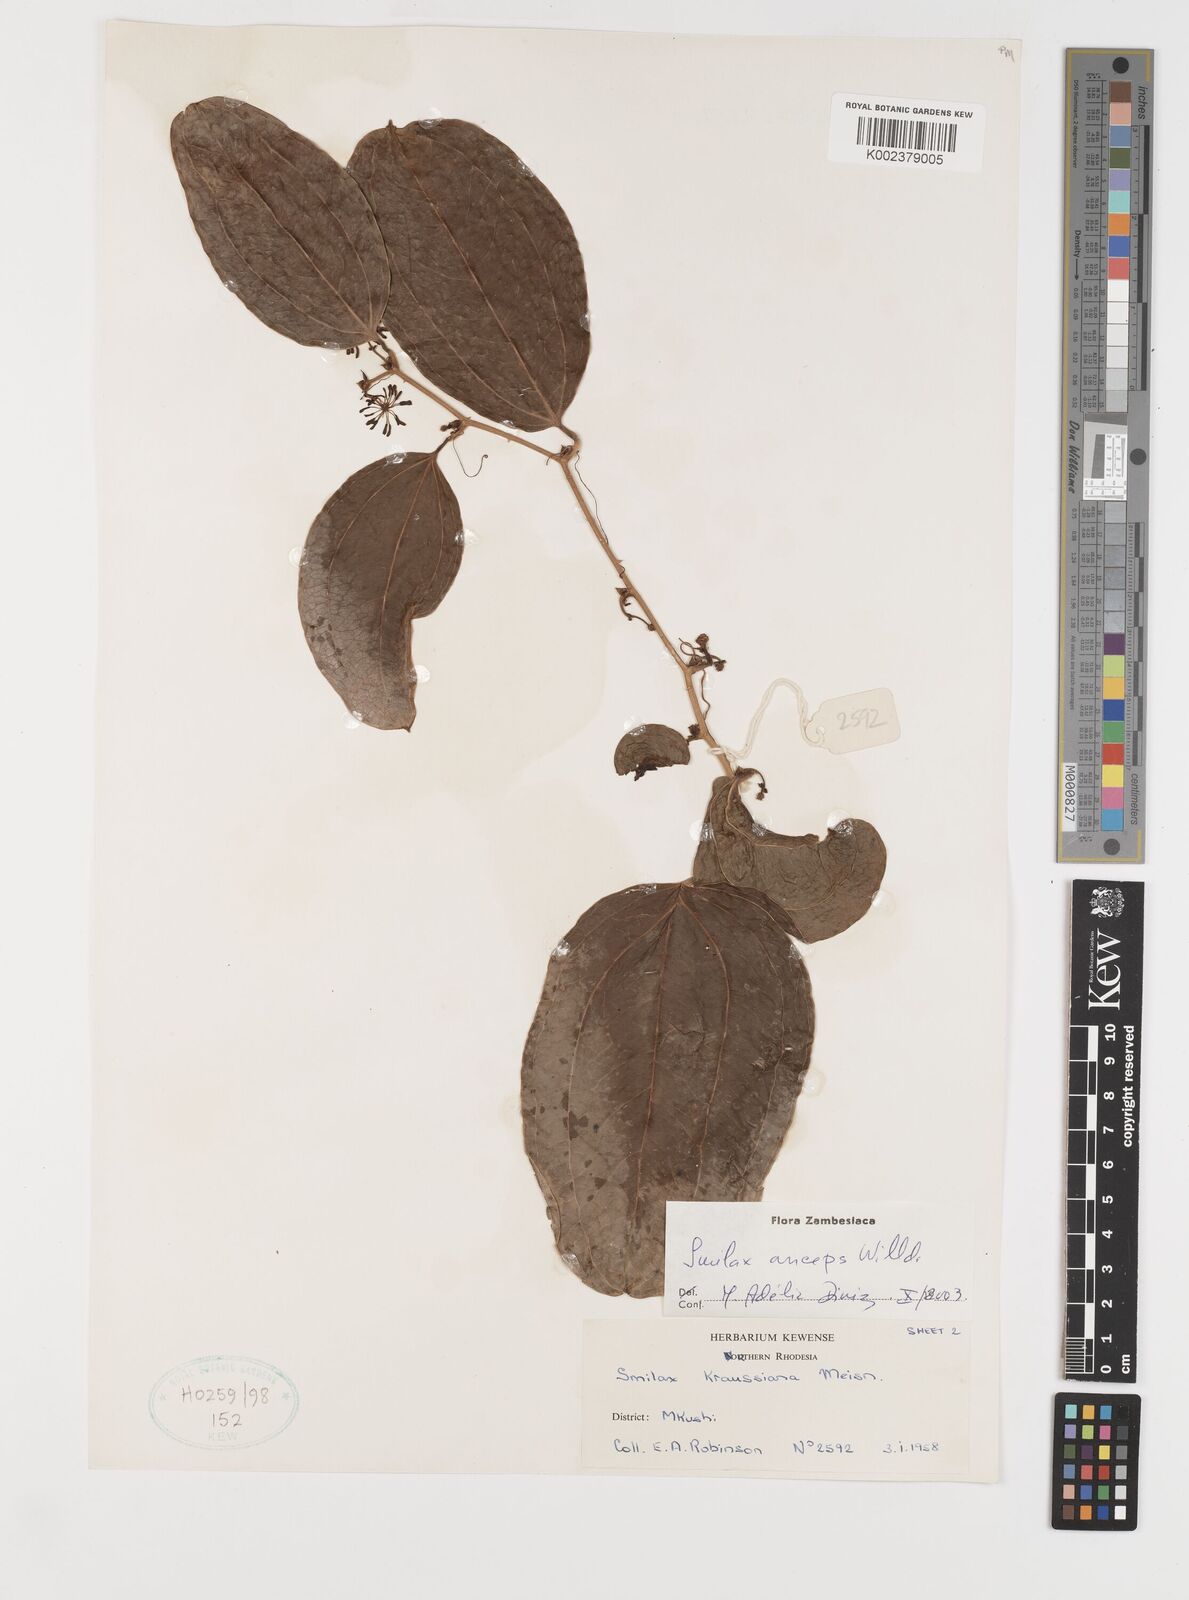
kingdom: Plantae
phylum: Tracheophyta
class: Liliopsida
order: Liliales
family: Smilacaceae
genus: Smilax
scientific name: Smilax anceps
